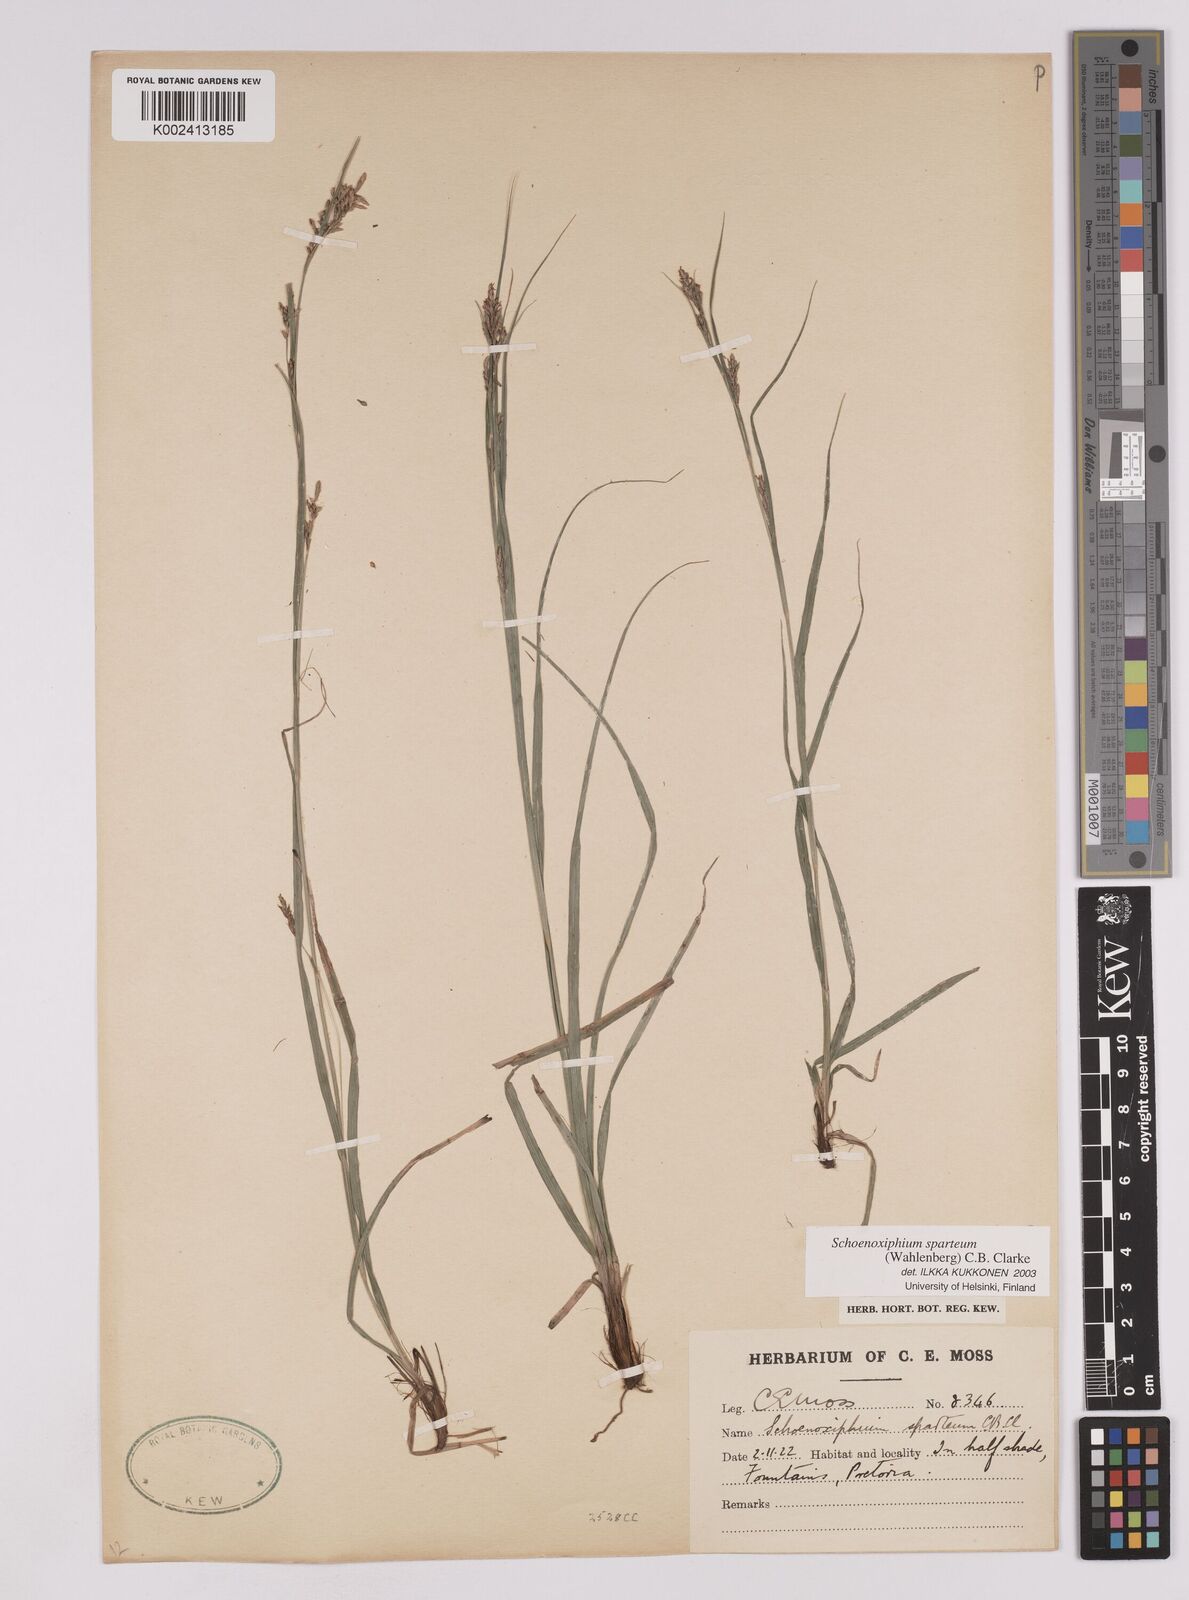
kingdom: Plantae
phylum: Tracheophyta
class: Liliopsida
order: Poales
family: Cyperaceae
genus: Carex
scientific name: Carex spartea
